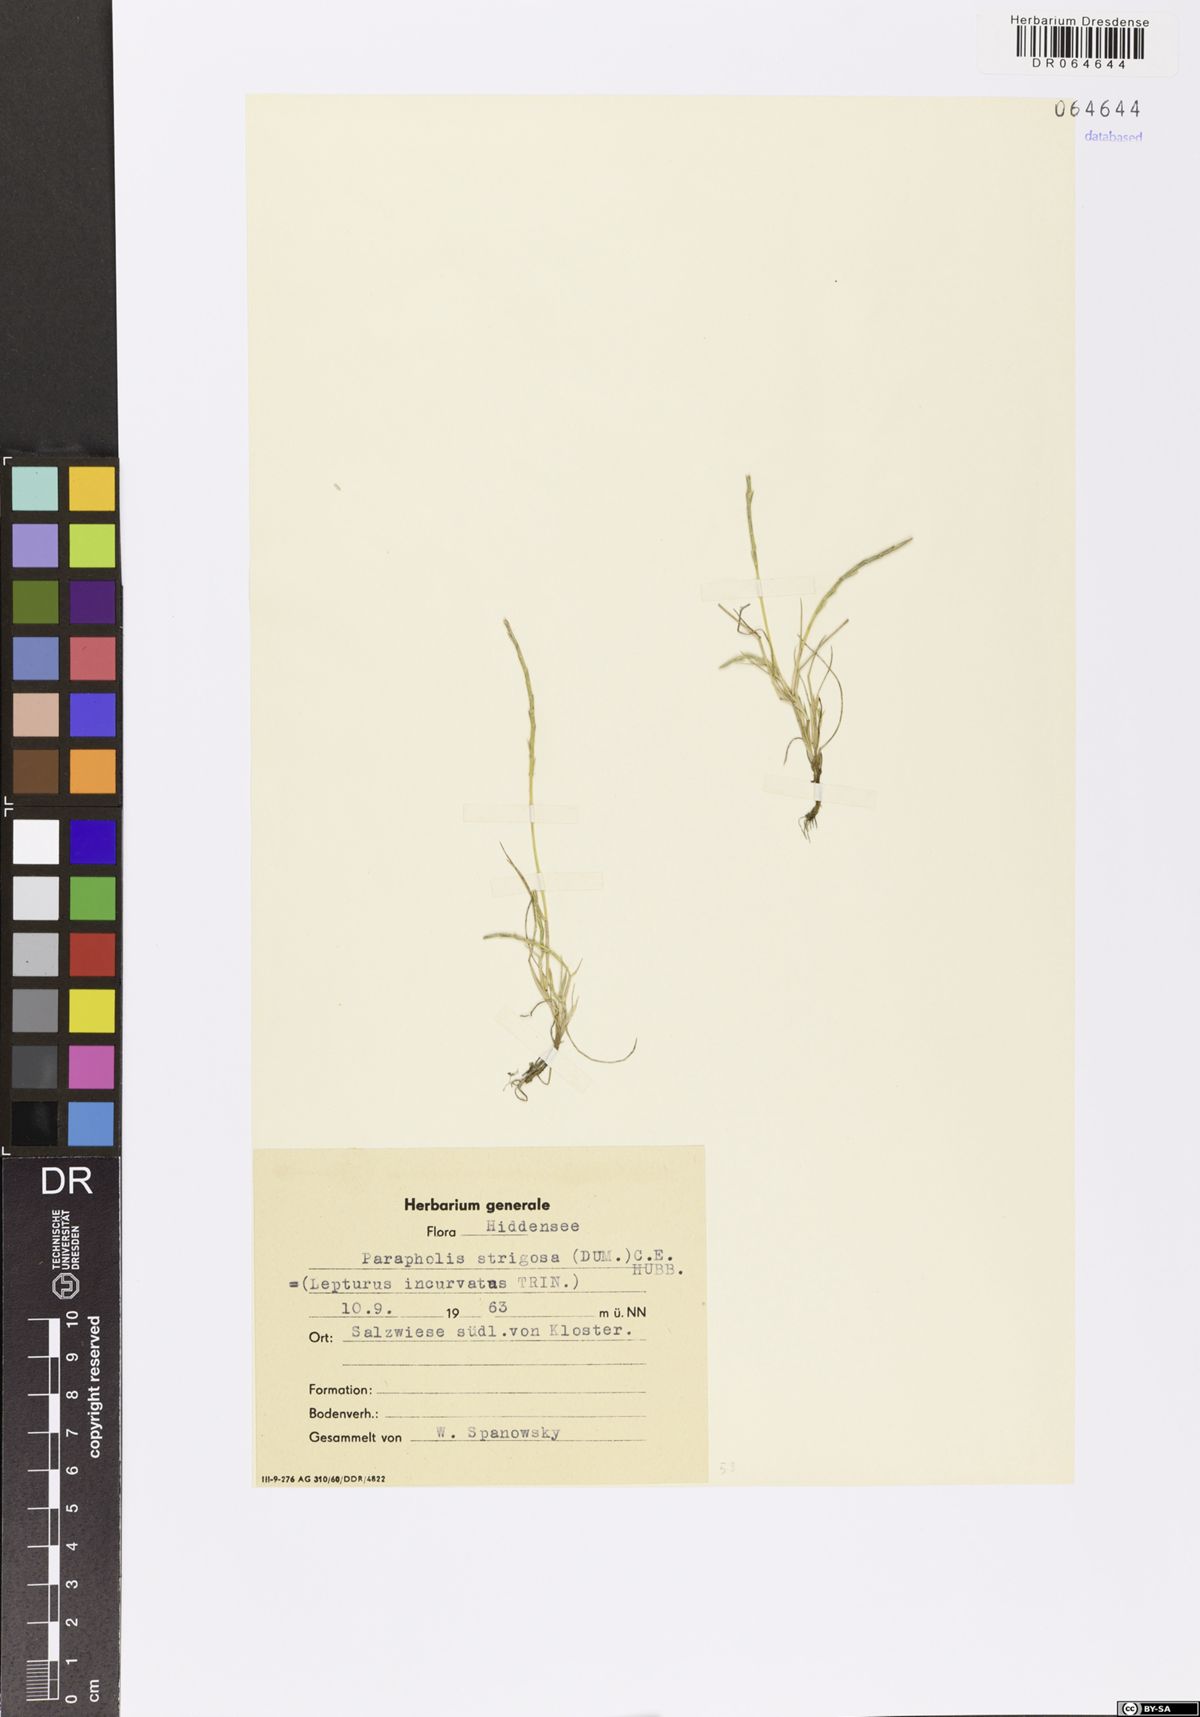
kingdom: Plantae
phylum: Tracheophyta
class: Liliopsida
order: Poales
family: Poaceae
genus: Parapholis
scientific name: Parapholis strigosa
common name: Hard-grass
